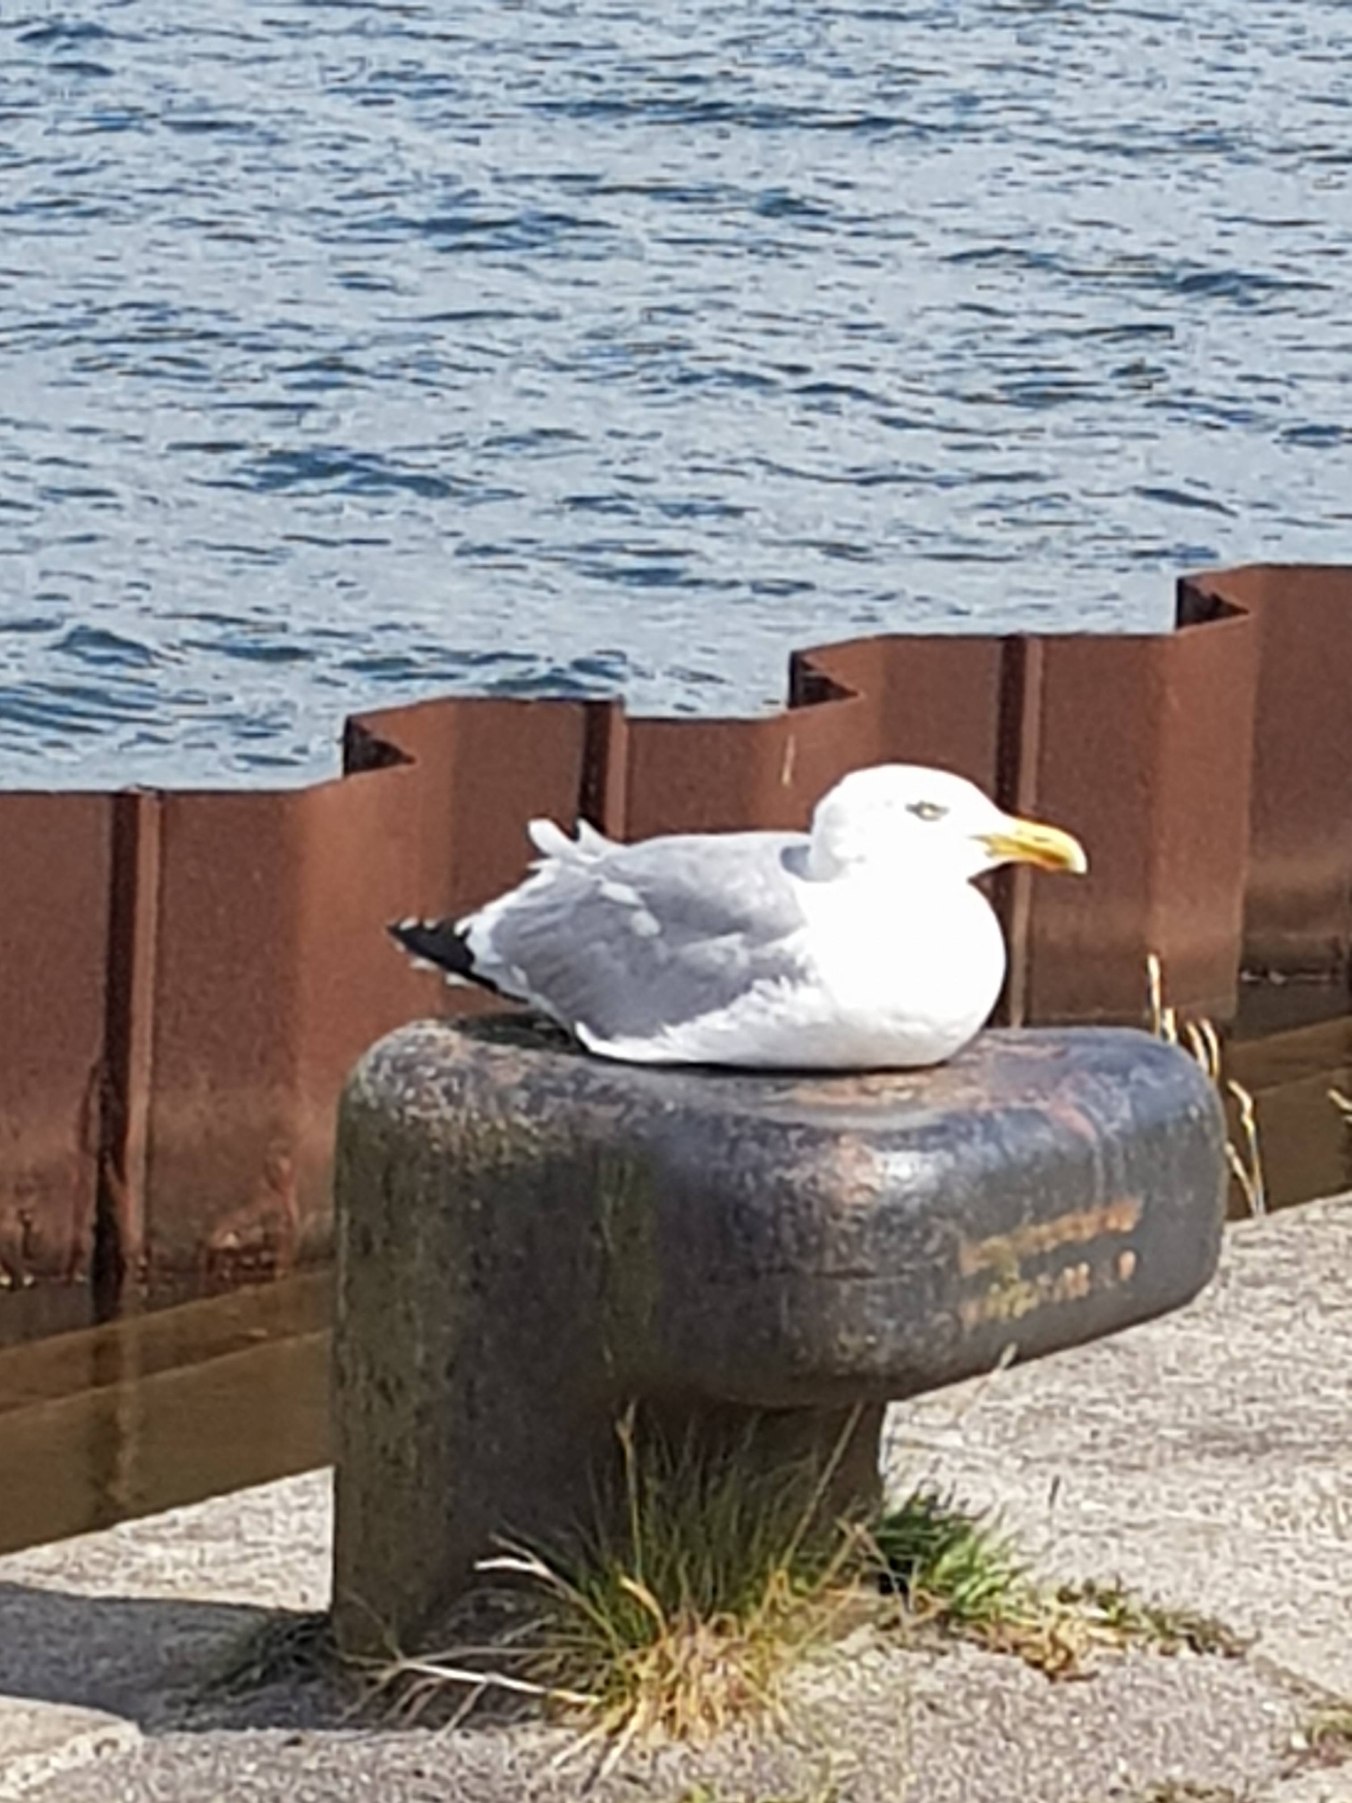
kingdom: Animalia
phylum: Chordata
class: Aves
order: Charadriiformes
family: Laridae
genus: Larus
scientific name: Larus argentatus
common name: Sølvmåge
